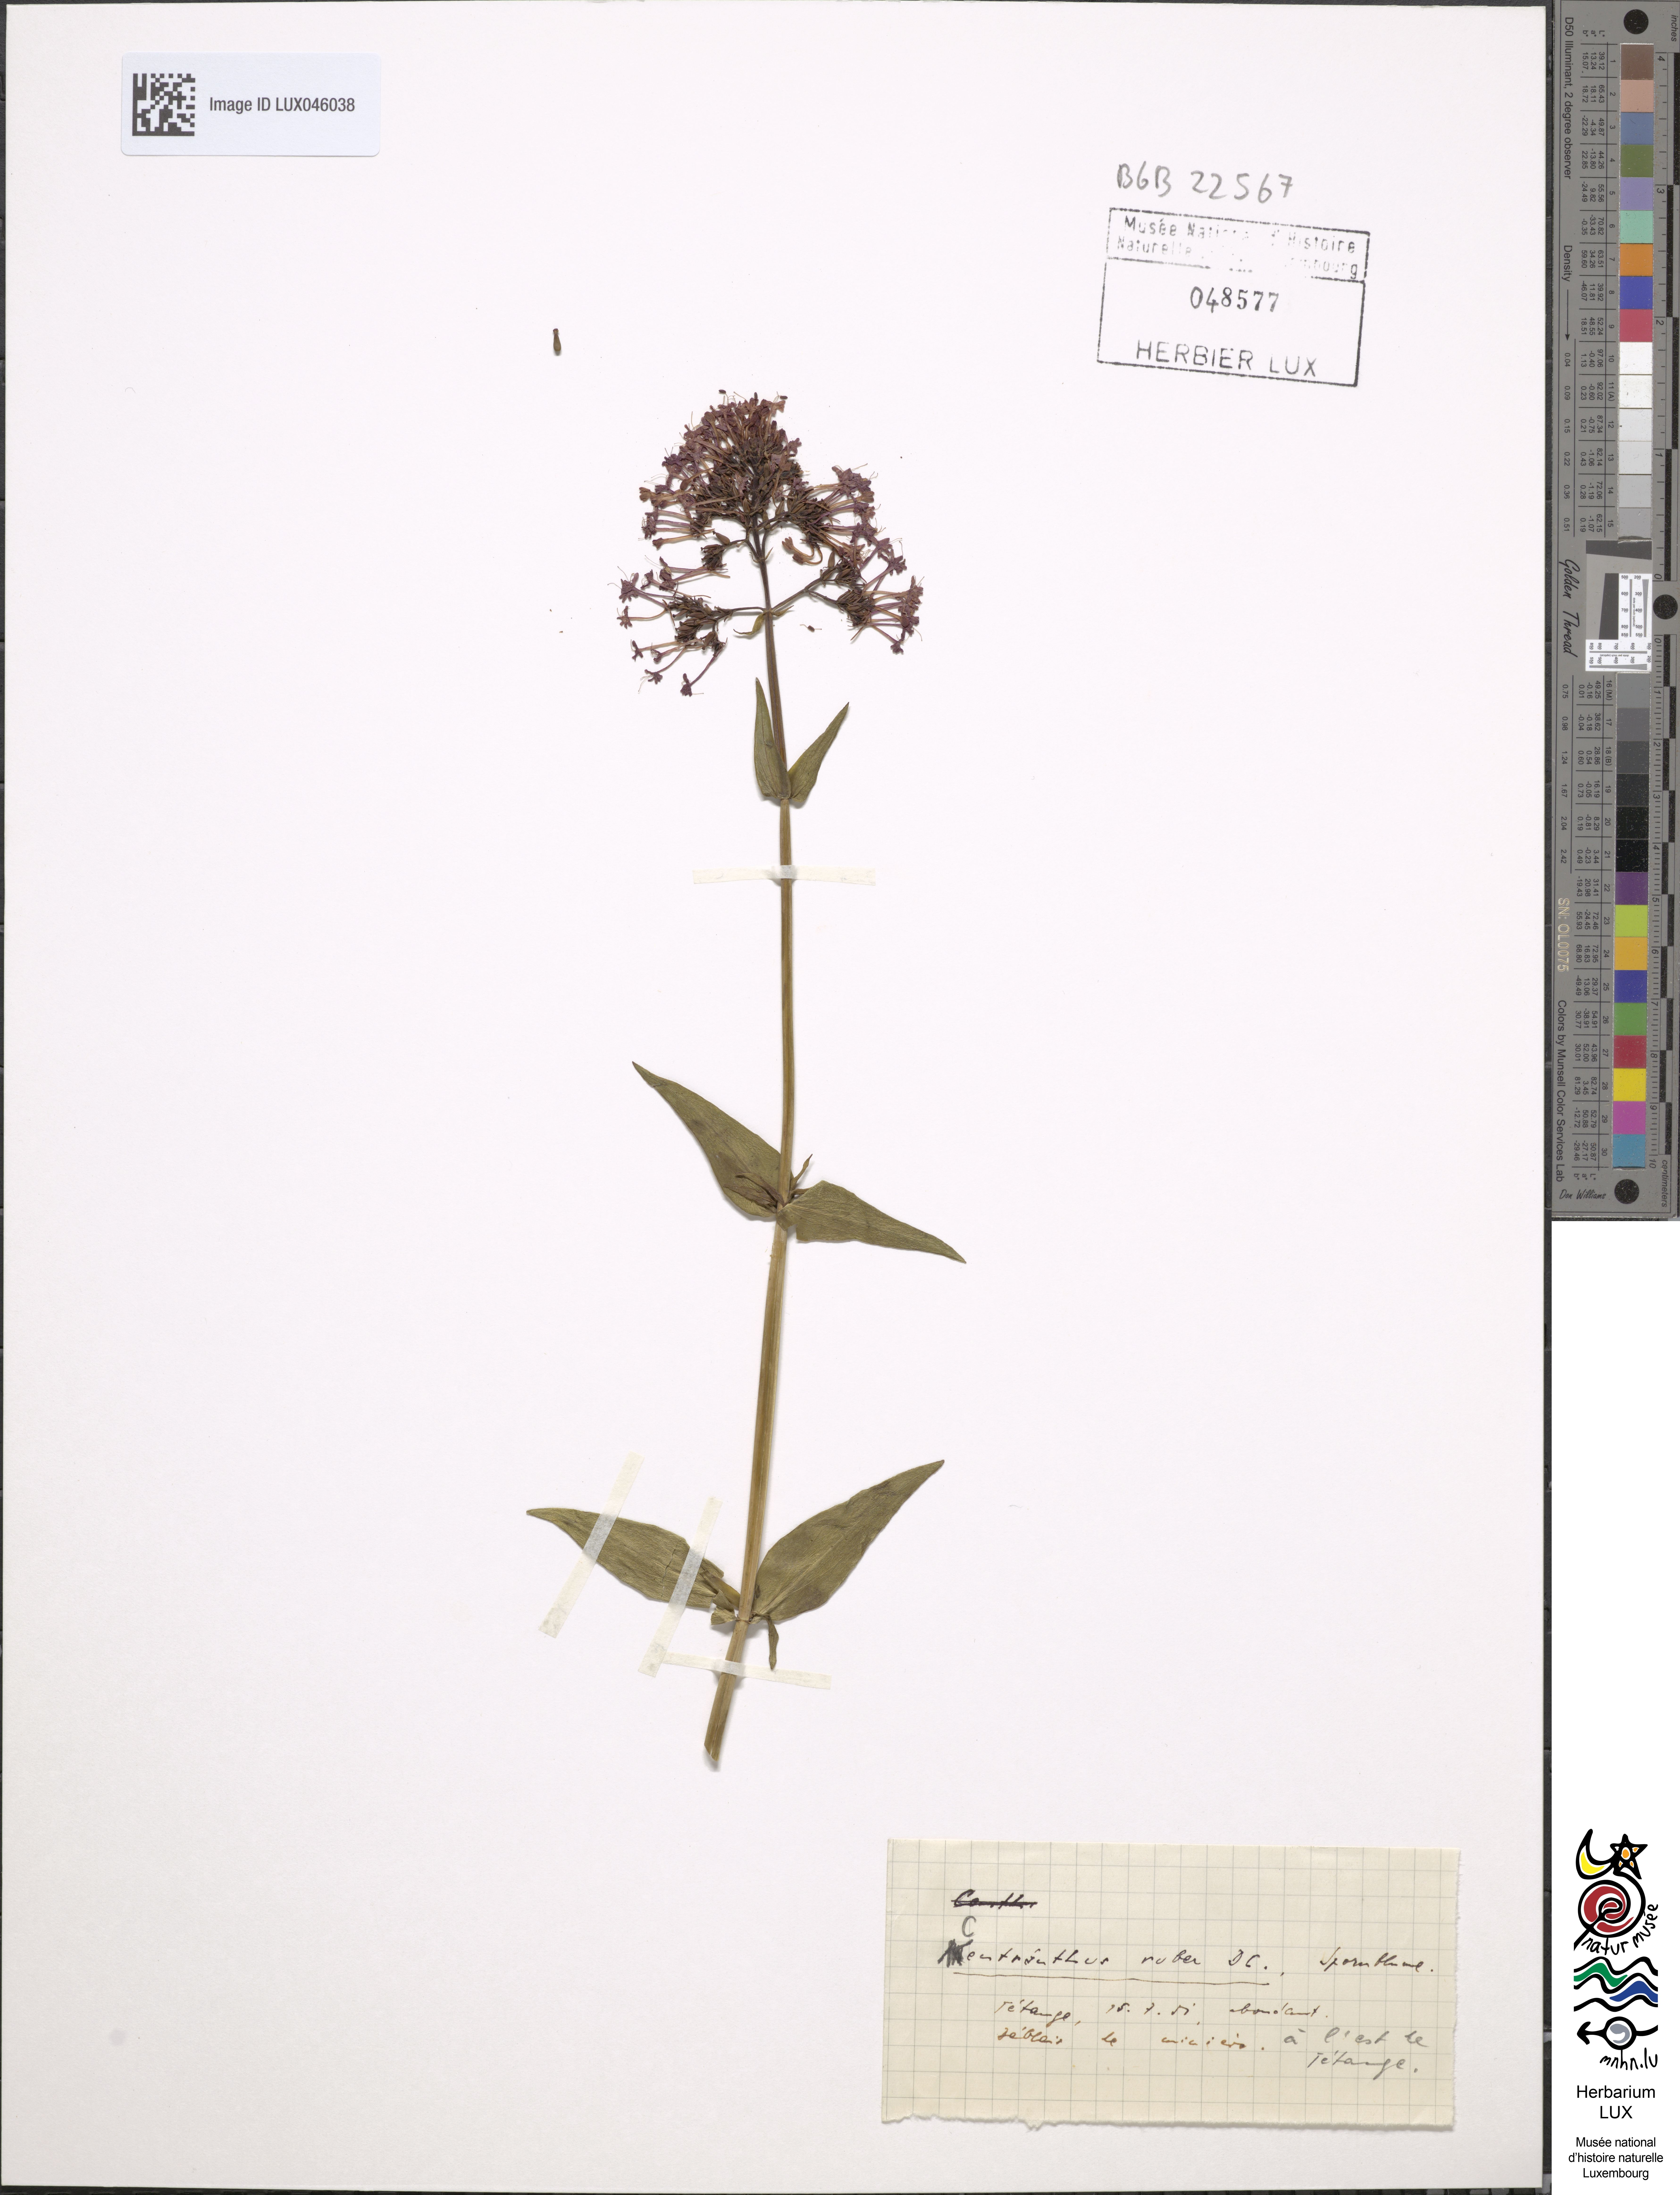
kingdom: Plantae
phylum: Tracheophyta
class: Magnoliopsida
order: Dipsacales
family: Caprifoliaceae
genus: Centranthus
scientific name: Centranthus ruber
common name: Red valerian
